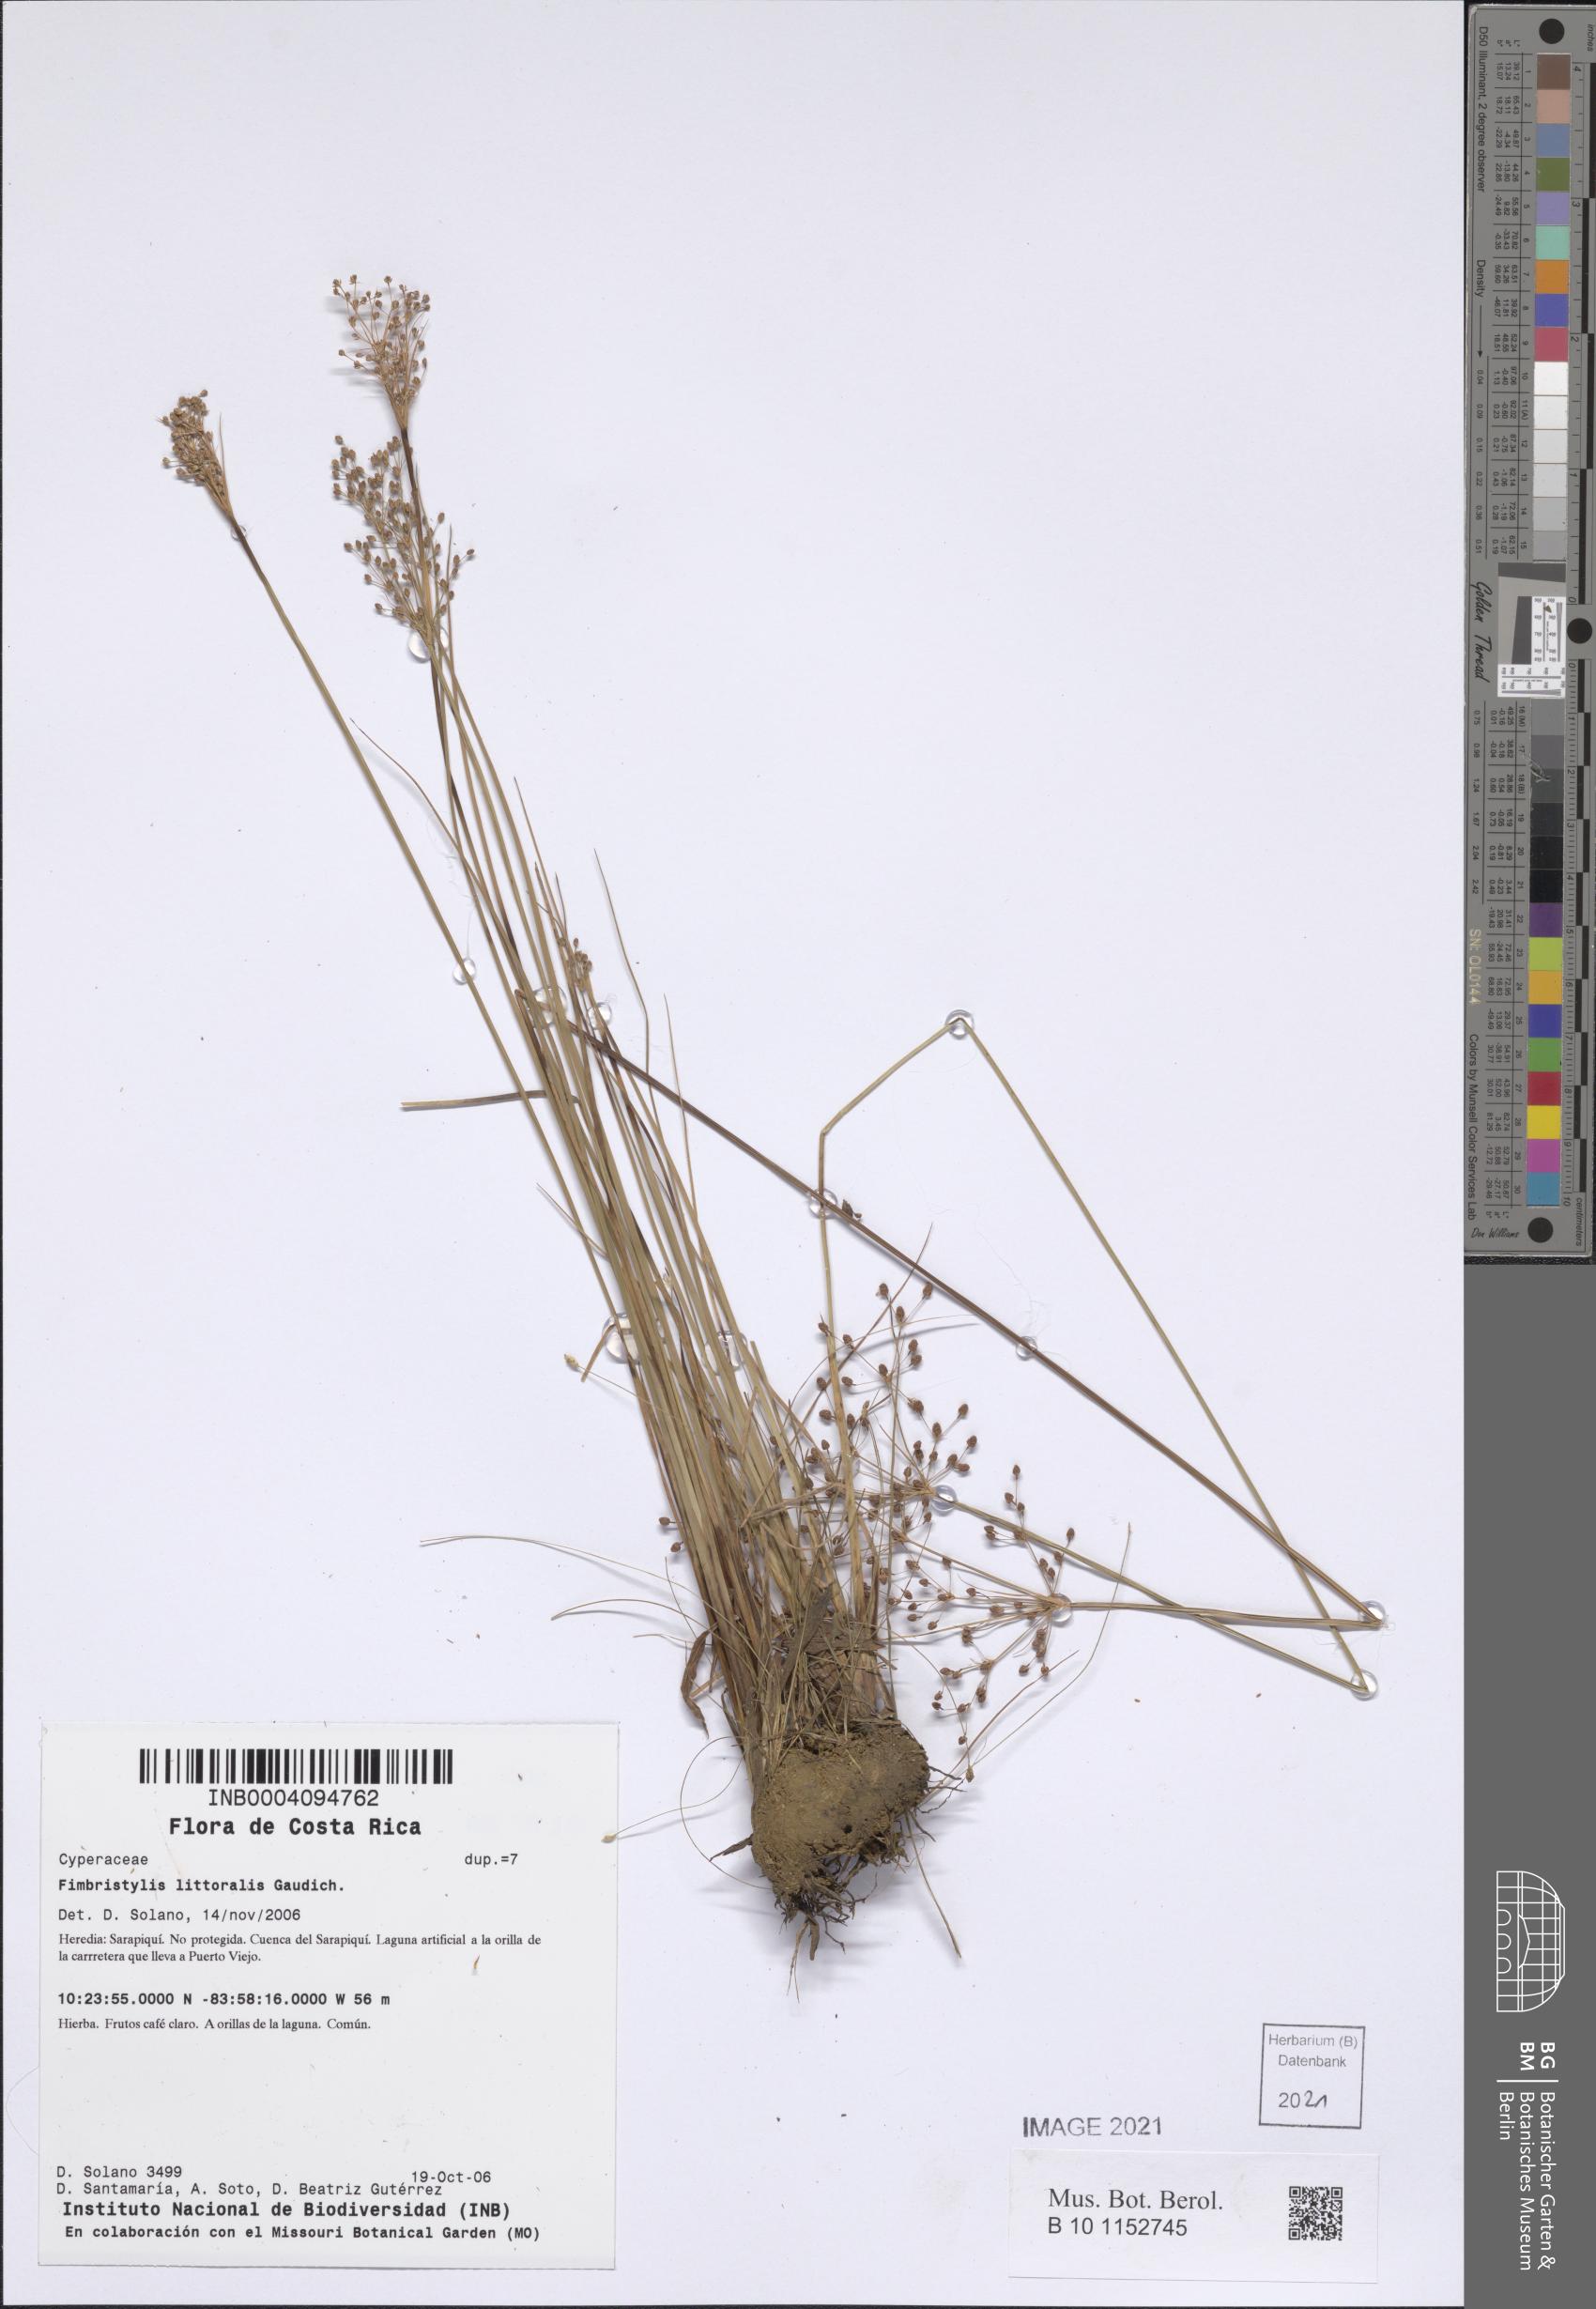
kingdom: Plantae
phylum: Tracheophyta
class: Liliopsida
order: Poales
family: Cyperaceae
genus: Fimbristylis
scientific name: Fimbristylis littoralis
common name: Fimbry
